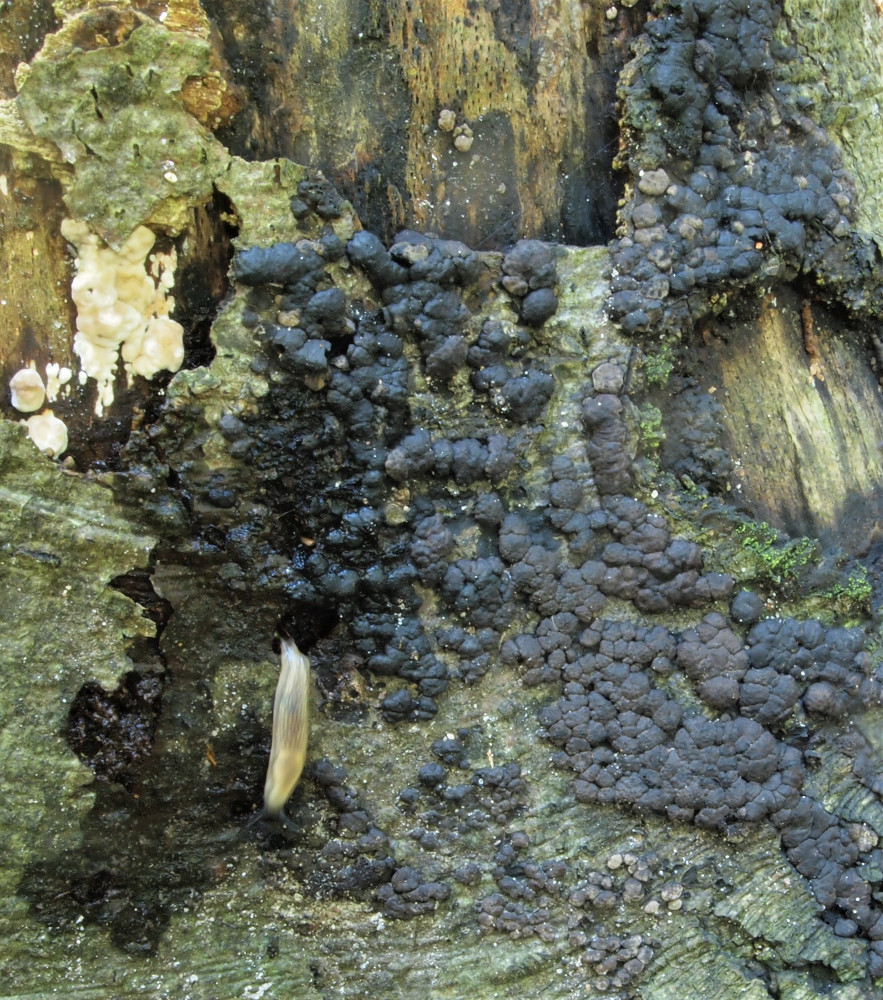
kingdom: Fungi
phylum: Ascomycota
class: Sordariomycetes
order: Xylariales
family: Hypoxylaceae
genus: Jackrogersella
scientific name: Jackrogersella cohaerens
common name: sammenflydende kulbær
